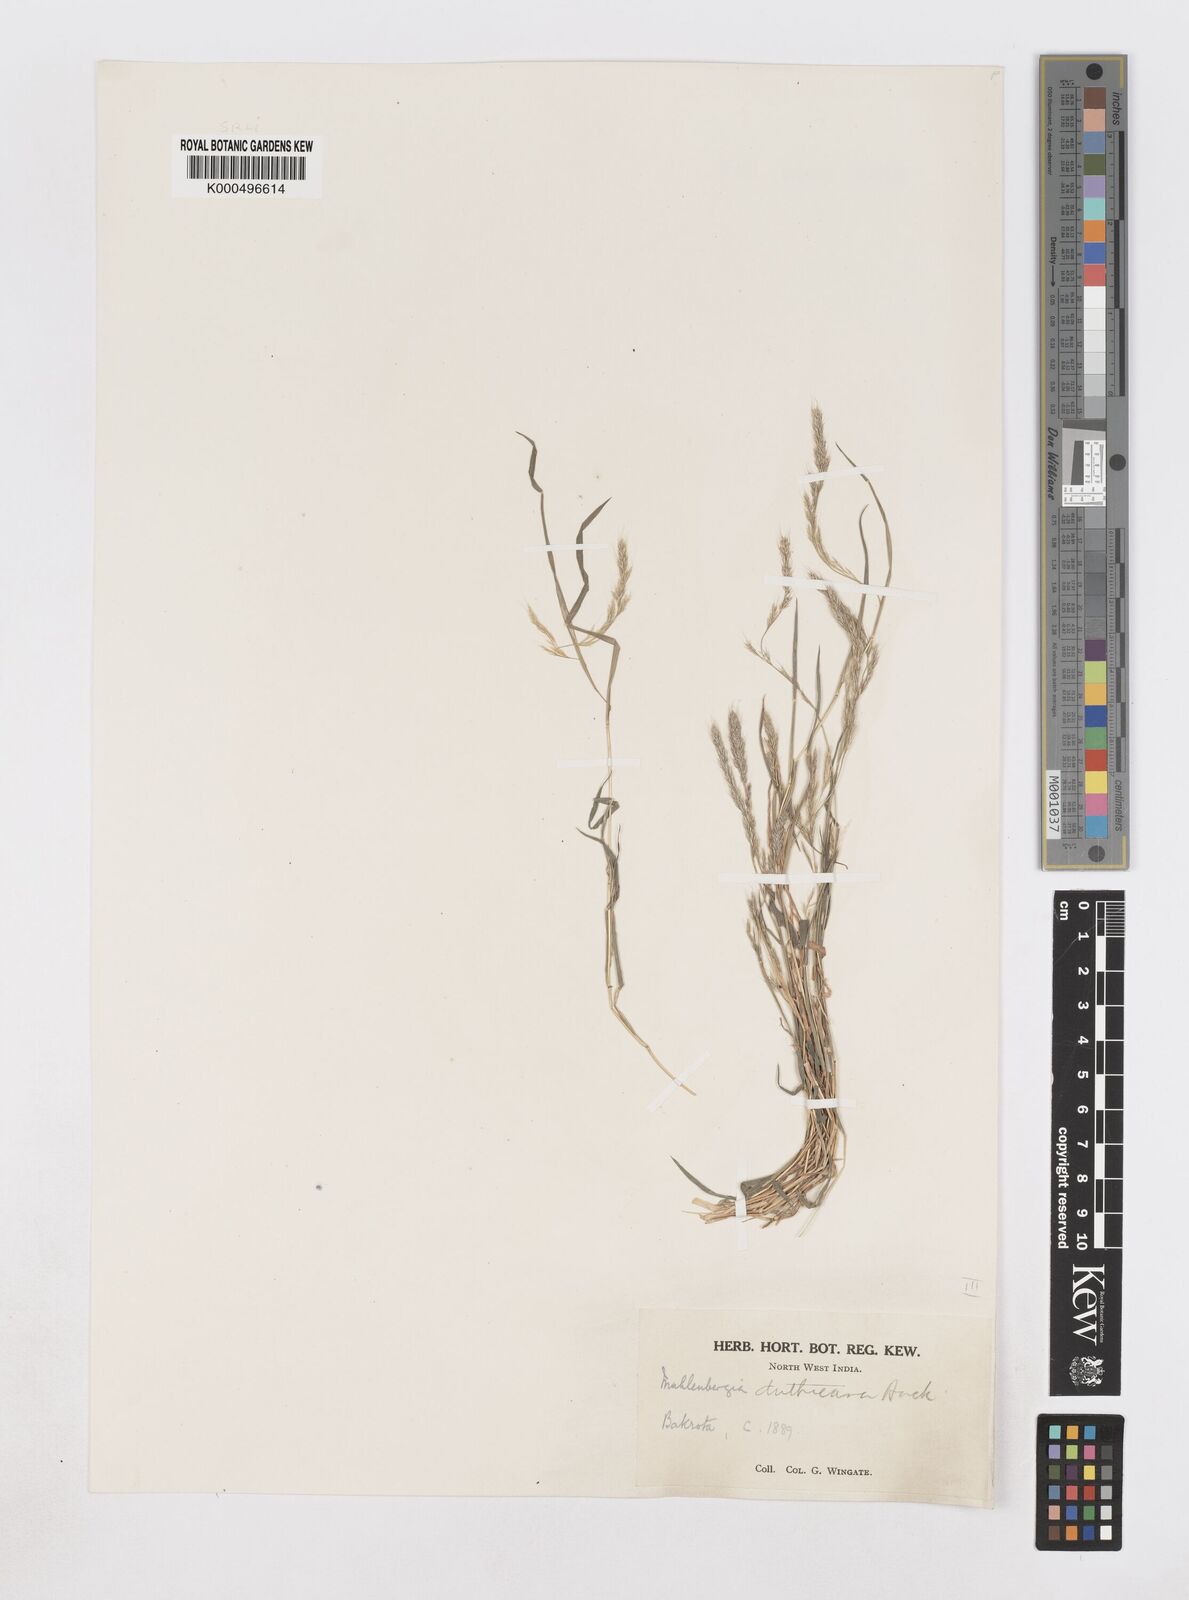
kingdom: Plantae
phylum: Tracheophyta
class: Liliopsida
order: Poales
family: Poaceae
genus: Muhlenbergia
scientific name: Muhlenbergia duthieana
